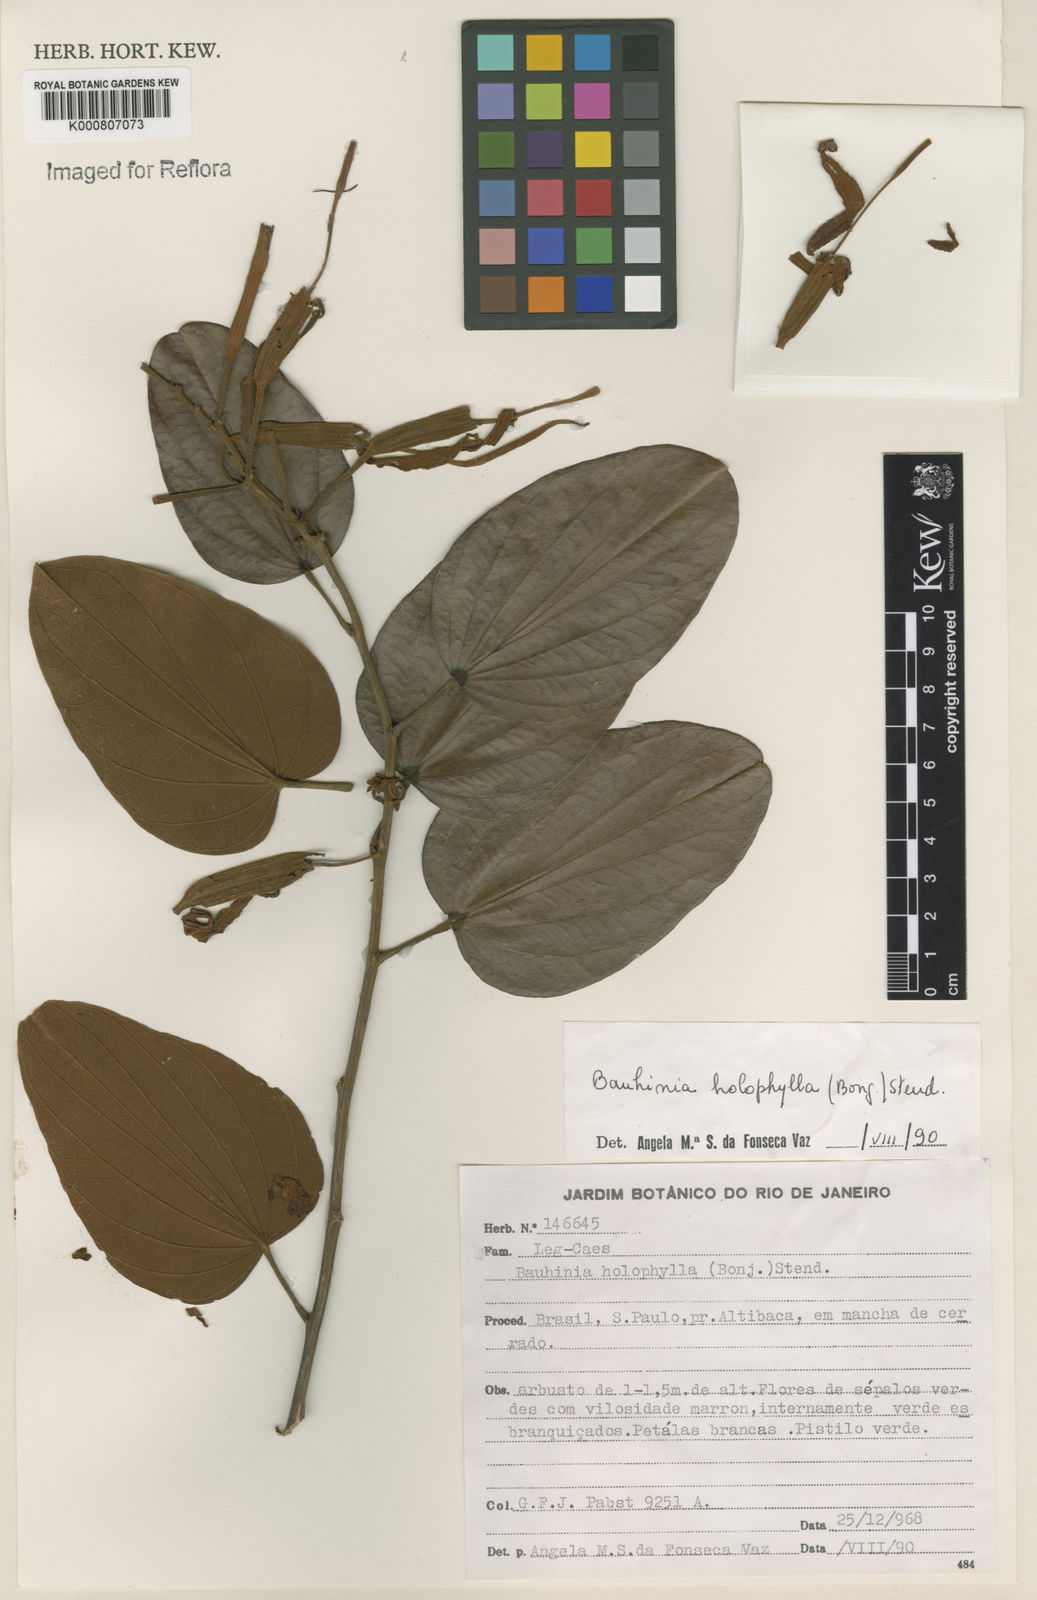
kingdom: Plantae
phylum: Tracheophyta
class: Magnoliopsida
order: Fabales
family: Fabaceae
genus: Bauhinia
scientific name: Bauhinia rufa
